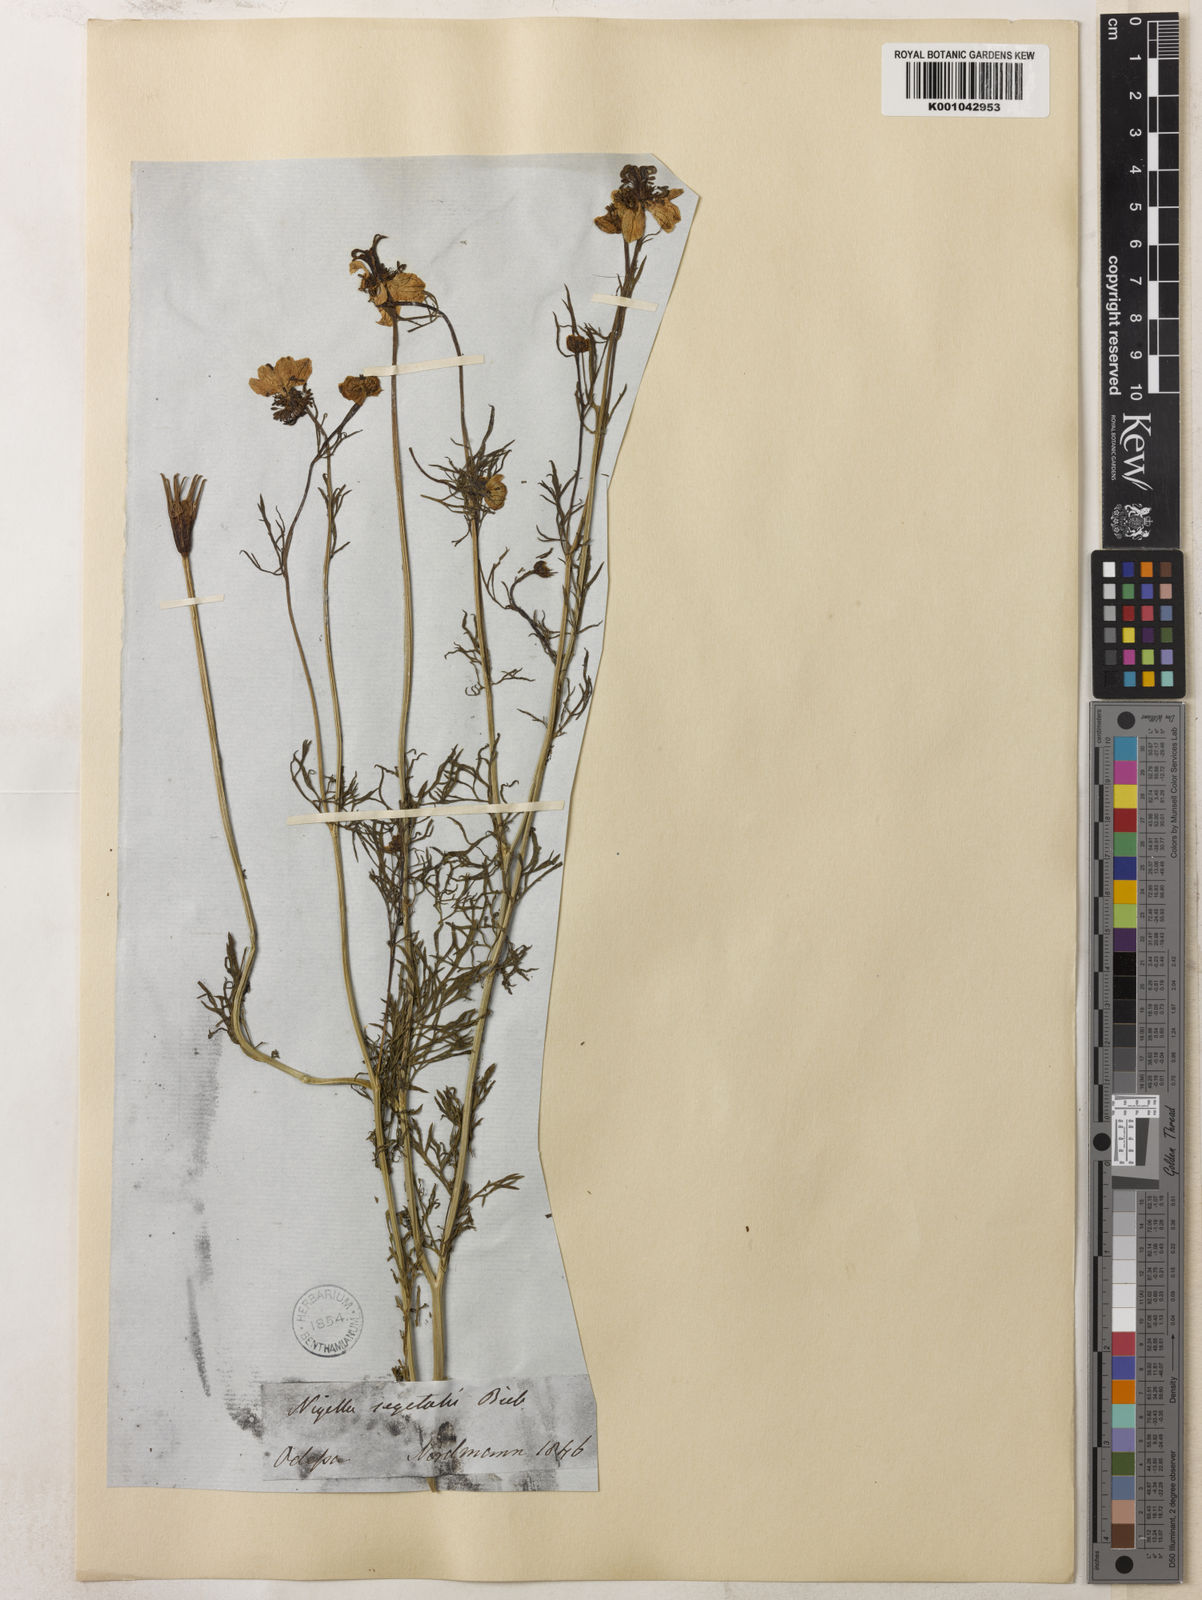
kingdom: Plantae
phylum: Tracheophyta
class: Magnoliopsida
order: Ranunculales
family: Ranunculaceae
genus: Nigella
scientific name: Nigella segetalis
